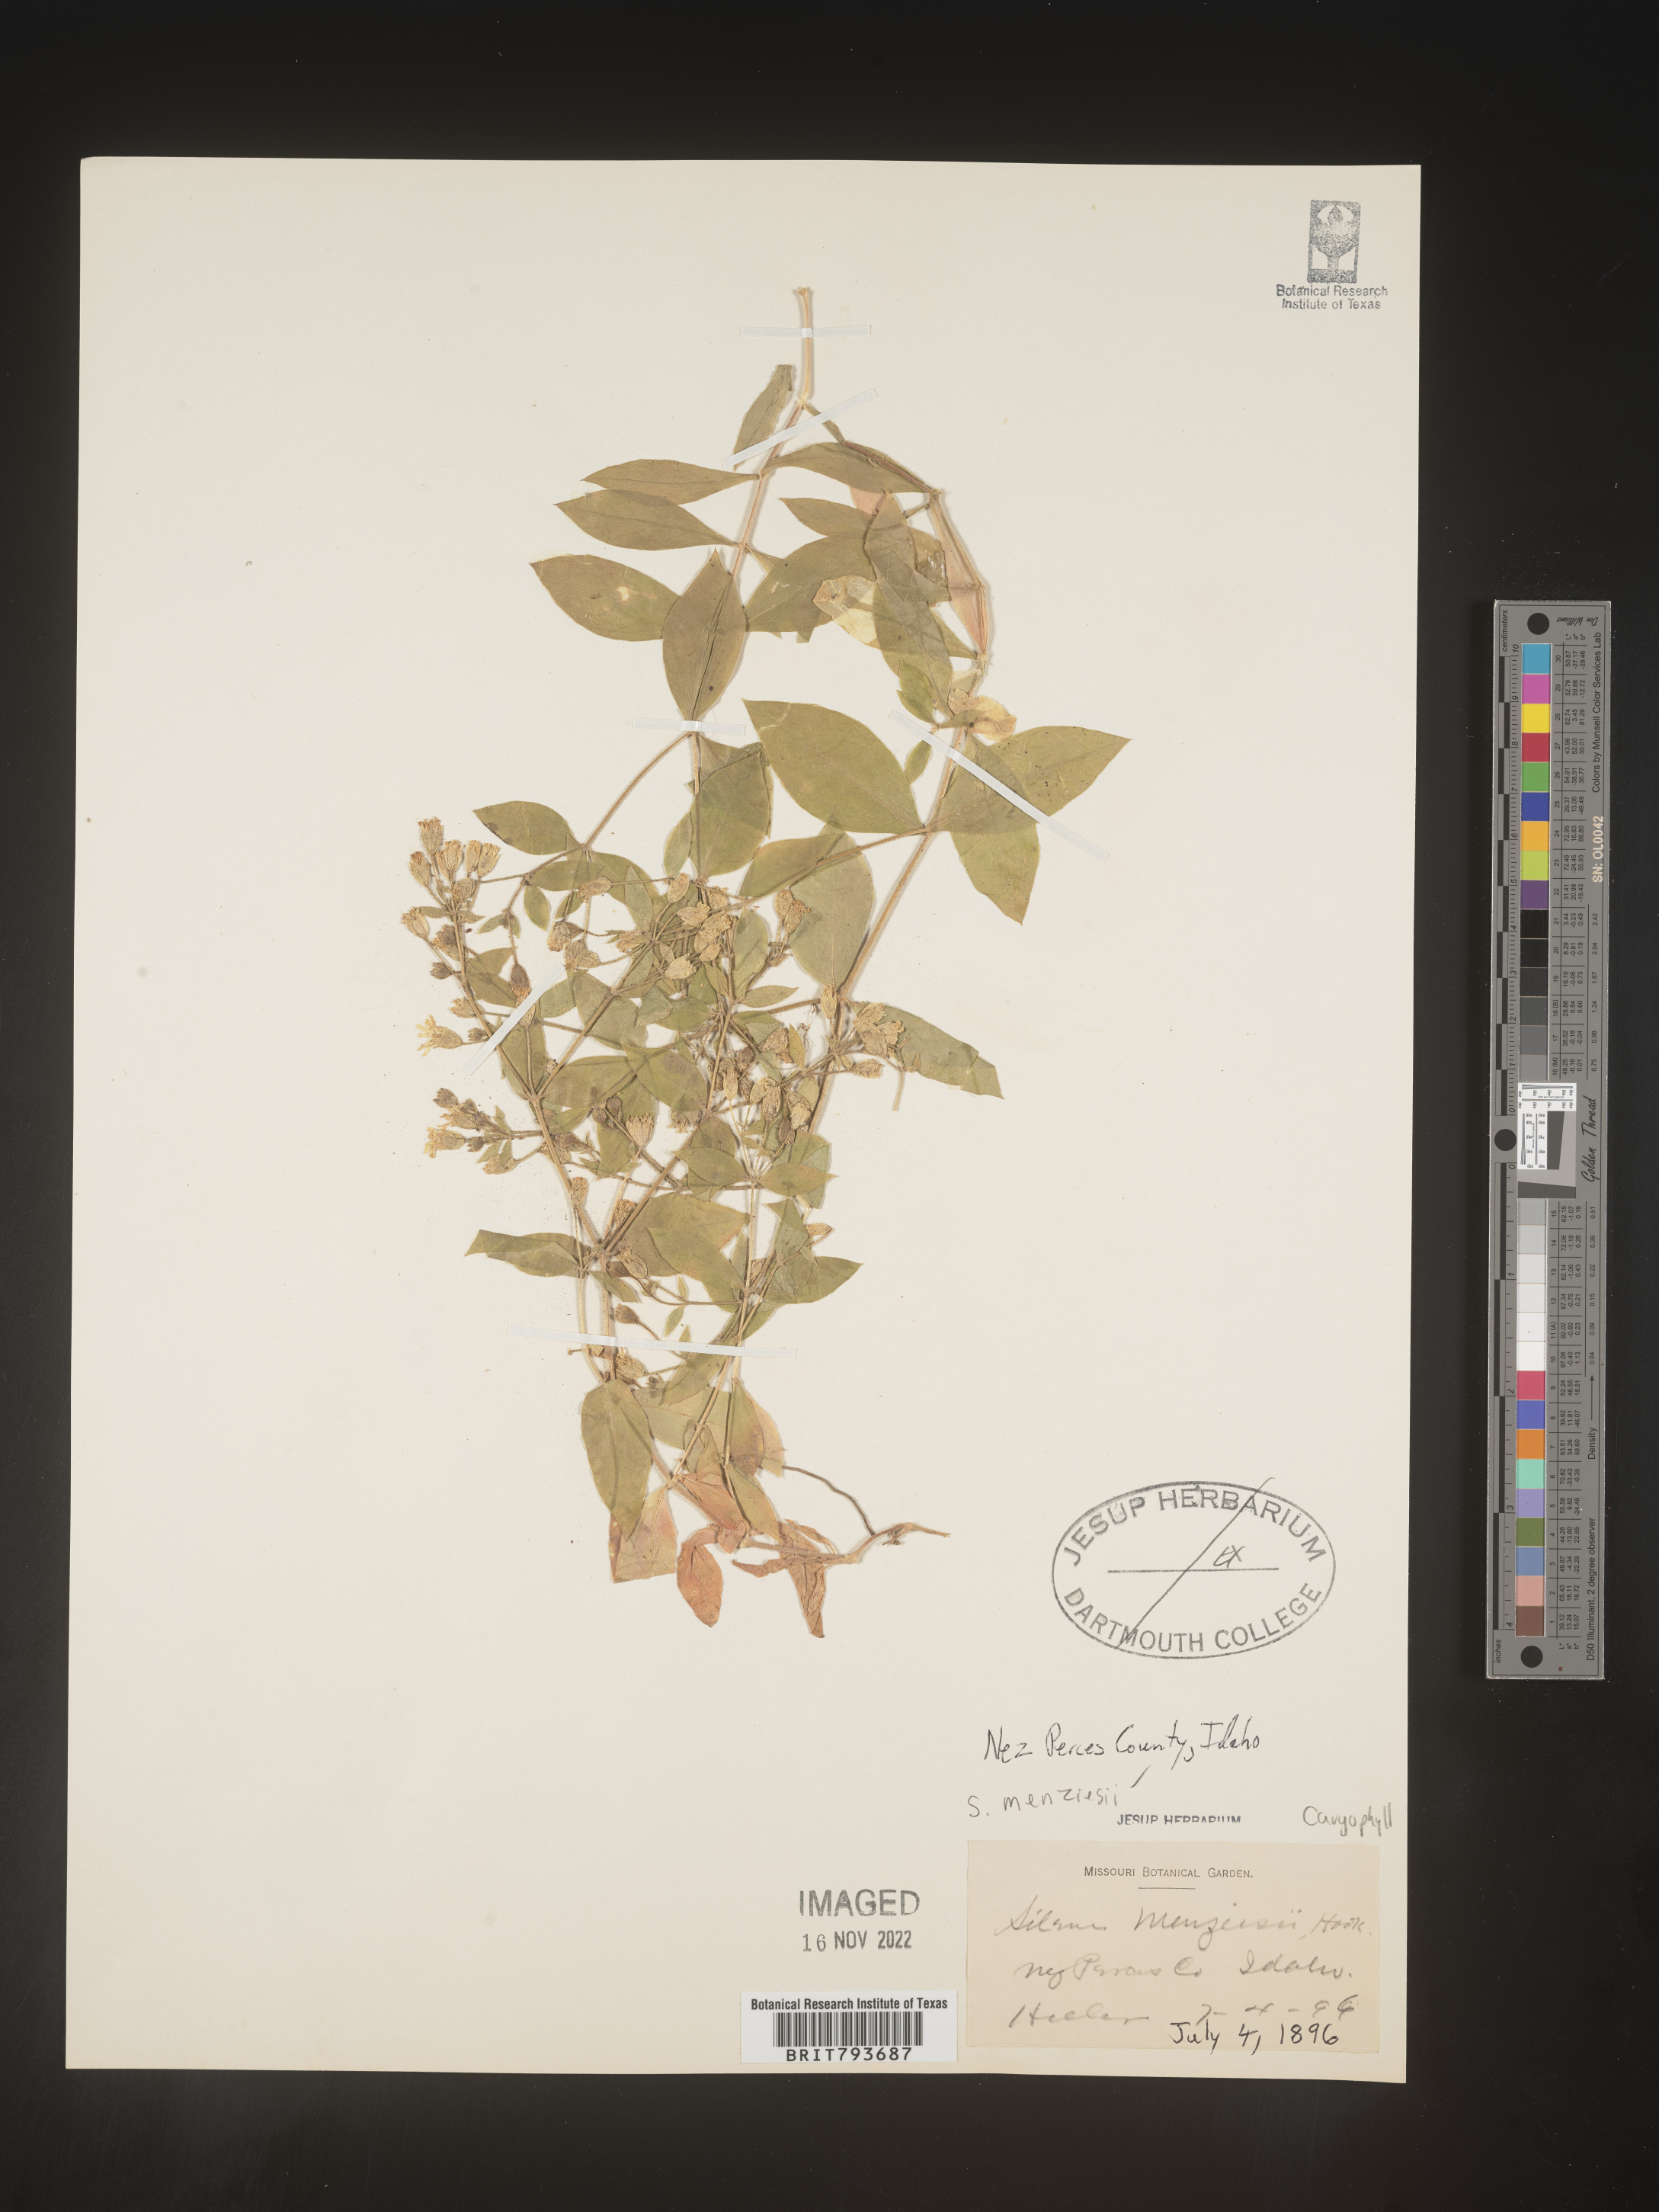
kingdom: Plantae
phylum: Tracheophyta
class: Magnoliopsida
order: Caryophyllales
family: Caryophyllaceae
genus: Silene
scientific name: Silene menziesii
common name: Menzies's catchfly
